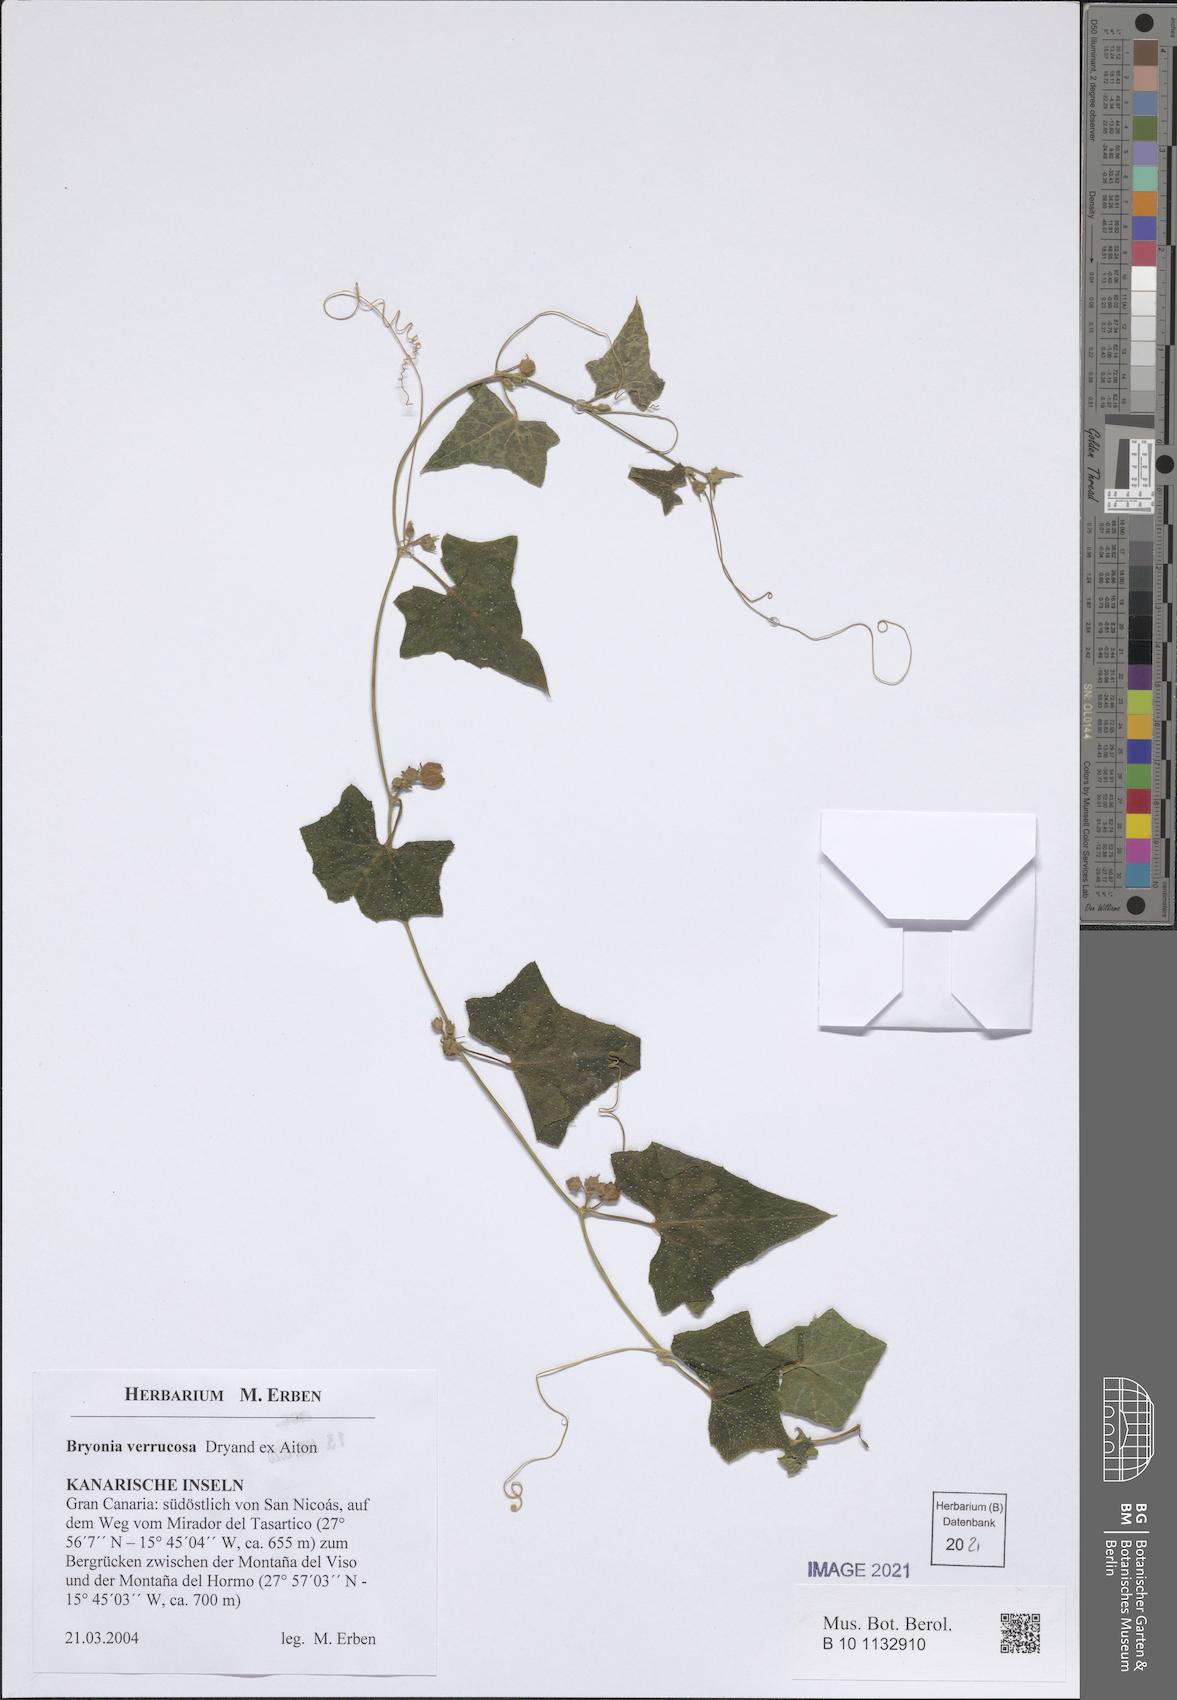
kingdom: Plantae
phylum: Tracheophyta
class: Magnoliopsida
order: Cucurbitales
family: Cucurbitaceae
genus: Bryonia
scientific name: Bryonia verrucosa
